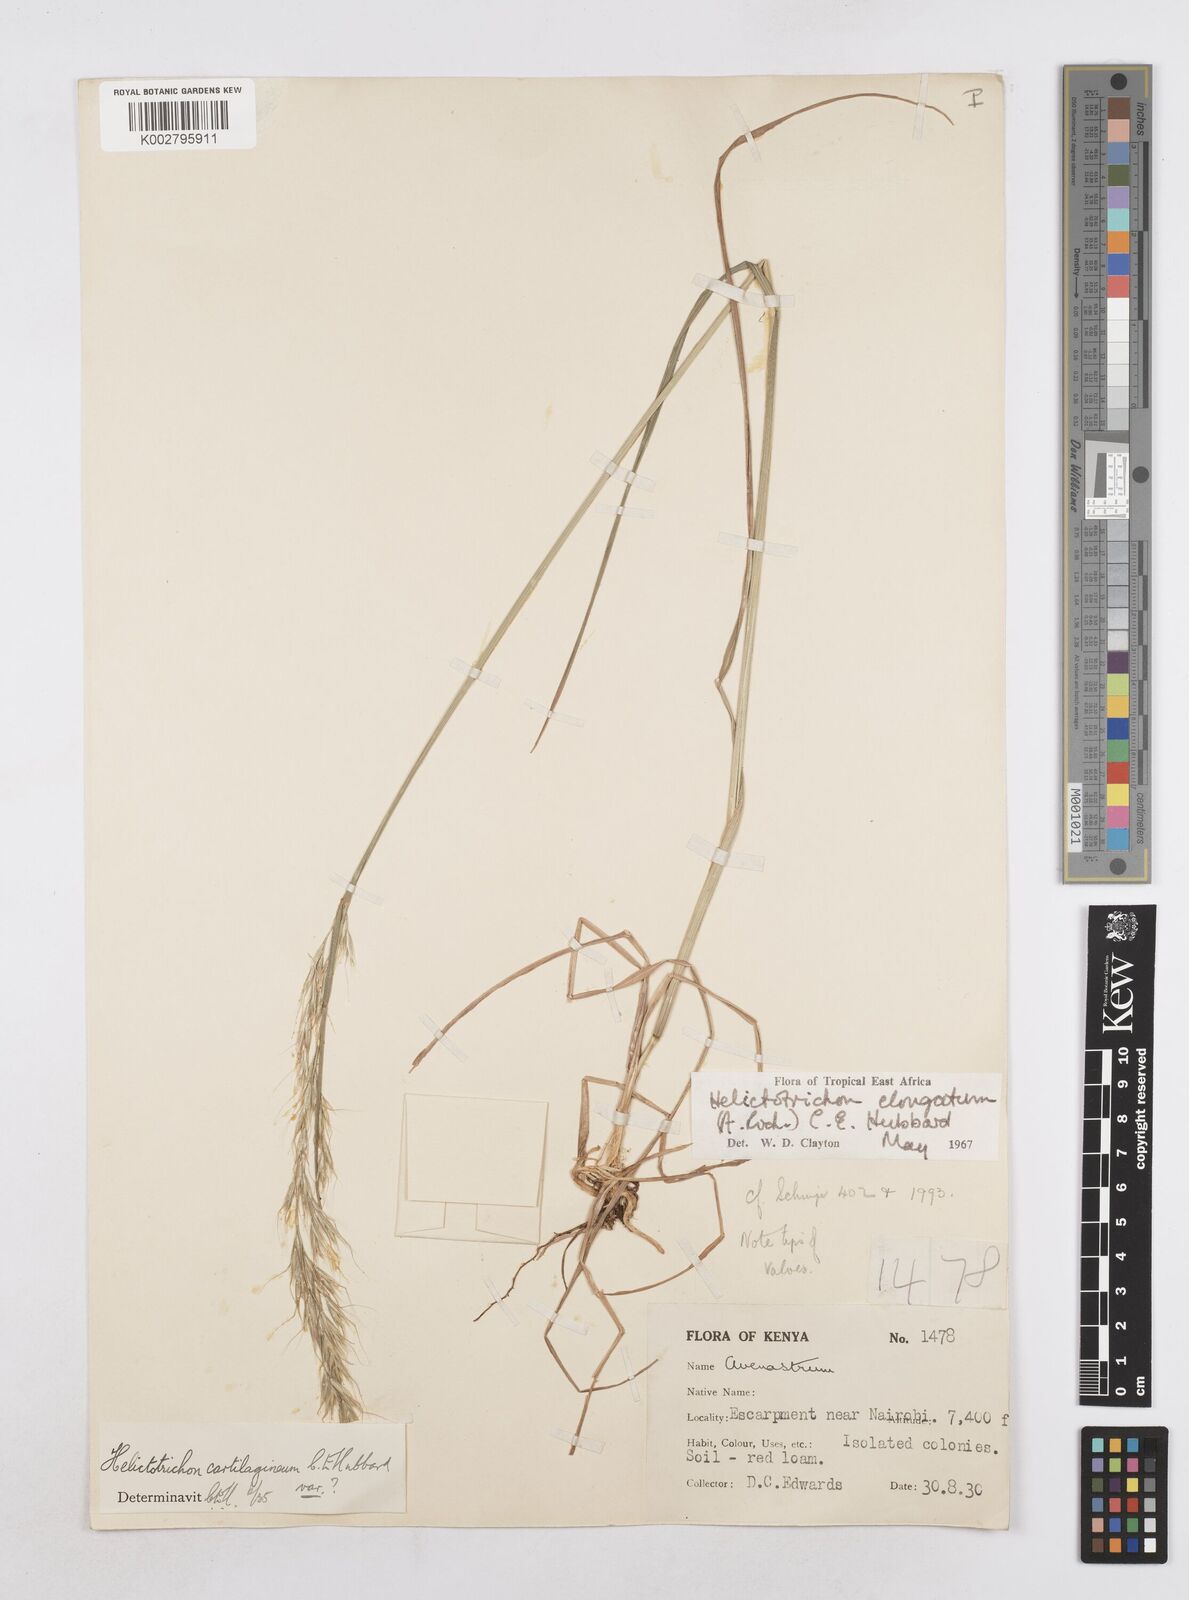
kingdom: Plantae
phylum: Tracheophyta
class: Liliopsida
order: Poales
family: Poaceae
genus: Trisetopsis
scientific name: Trisetopsis elongata
